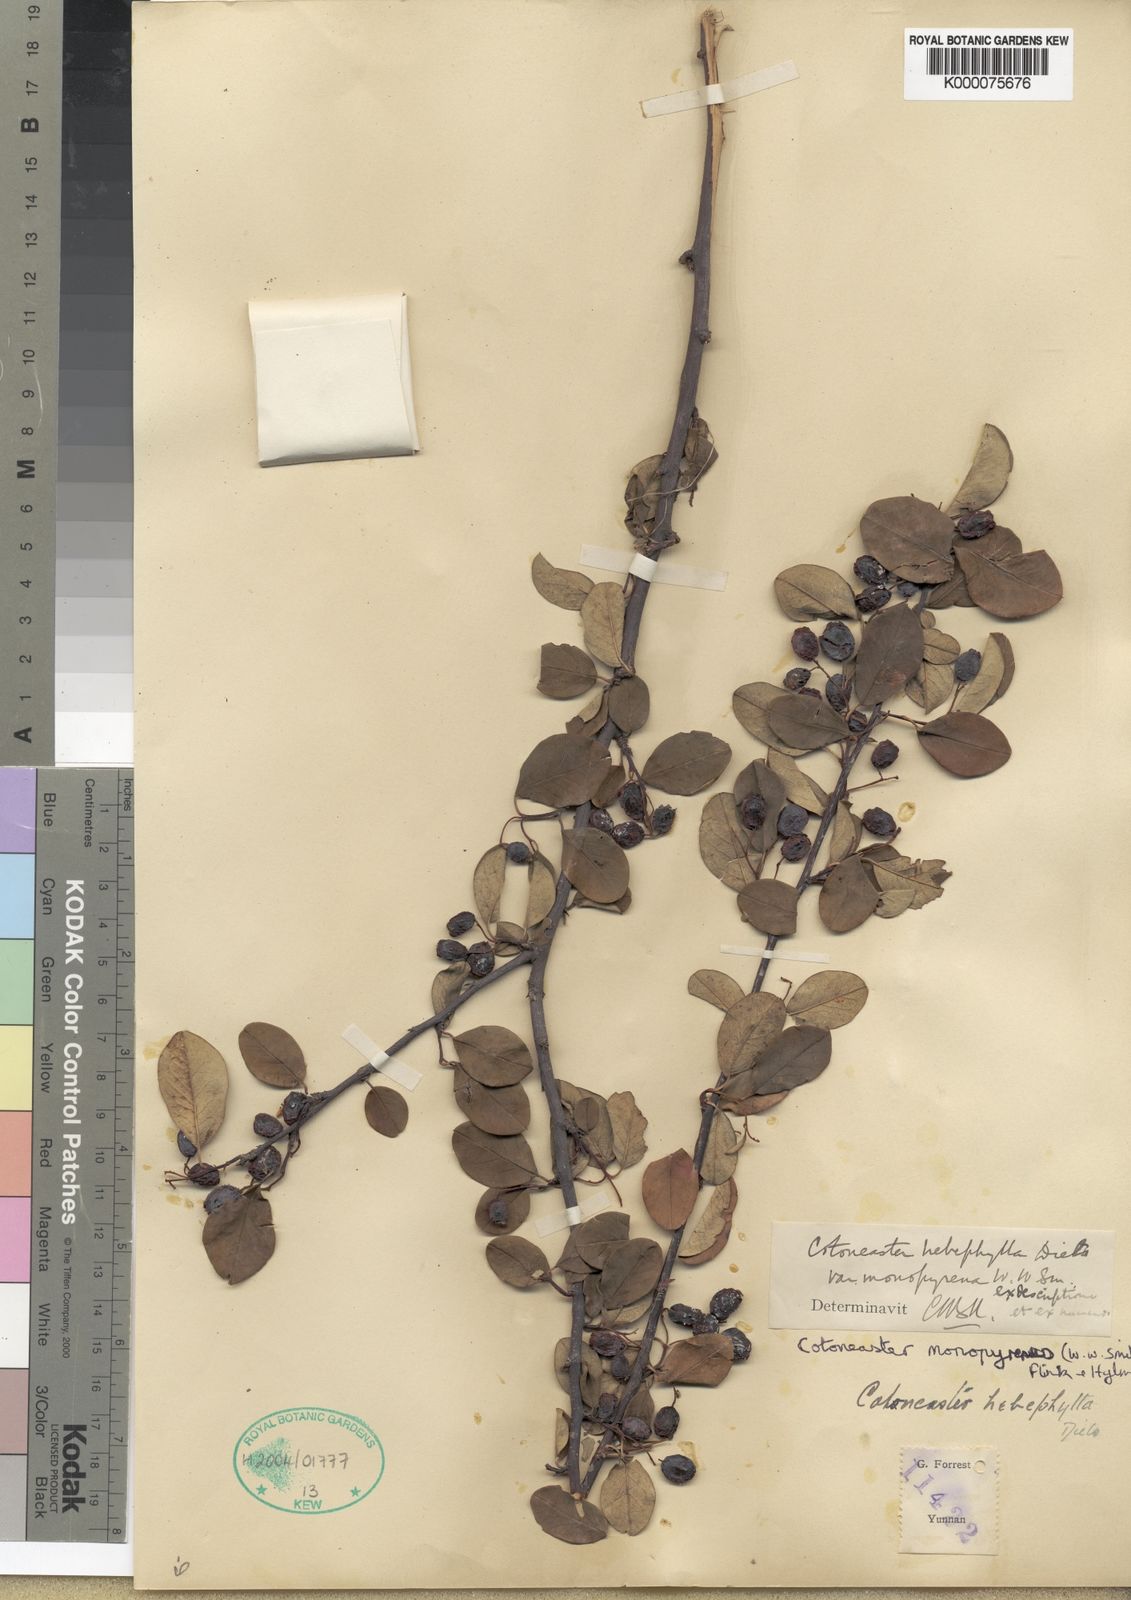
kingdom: Plantae
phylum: Tracheophyta
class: Magnoliopsida
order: Rosales
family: Rosaceae
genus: Cotoneaster
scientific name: Cotoneaster hebephyllus
